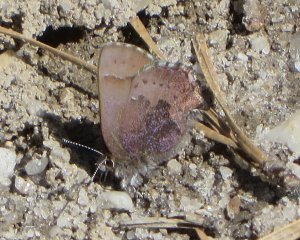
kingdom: Animalia
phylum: Arthropoda
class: Insecta
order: Lepidoptera
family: Lycaenidae
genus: Incisalia
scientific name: Incisalia irioides
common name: Brown Elfin
